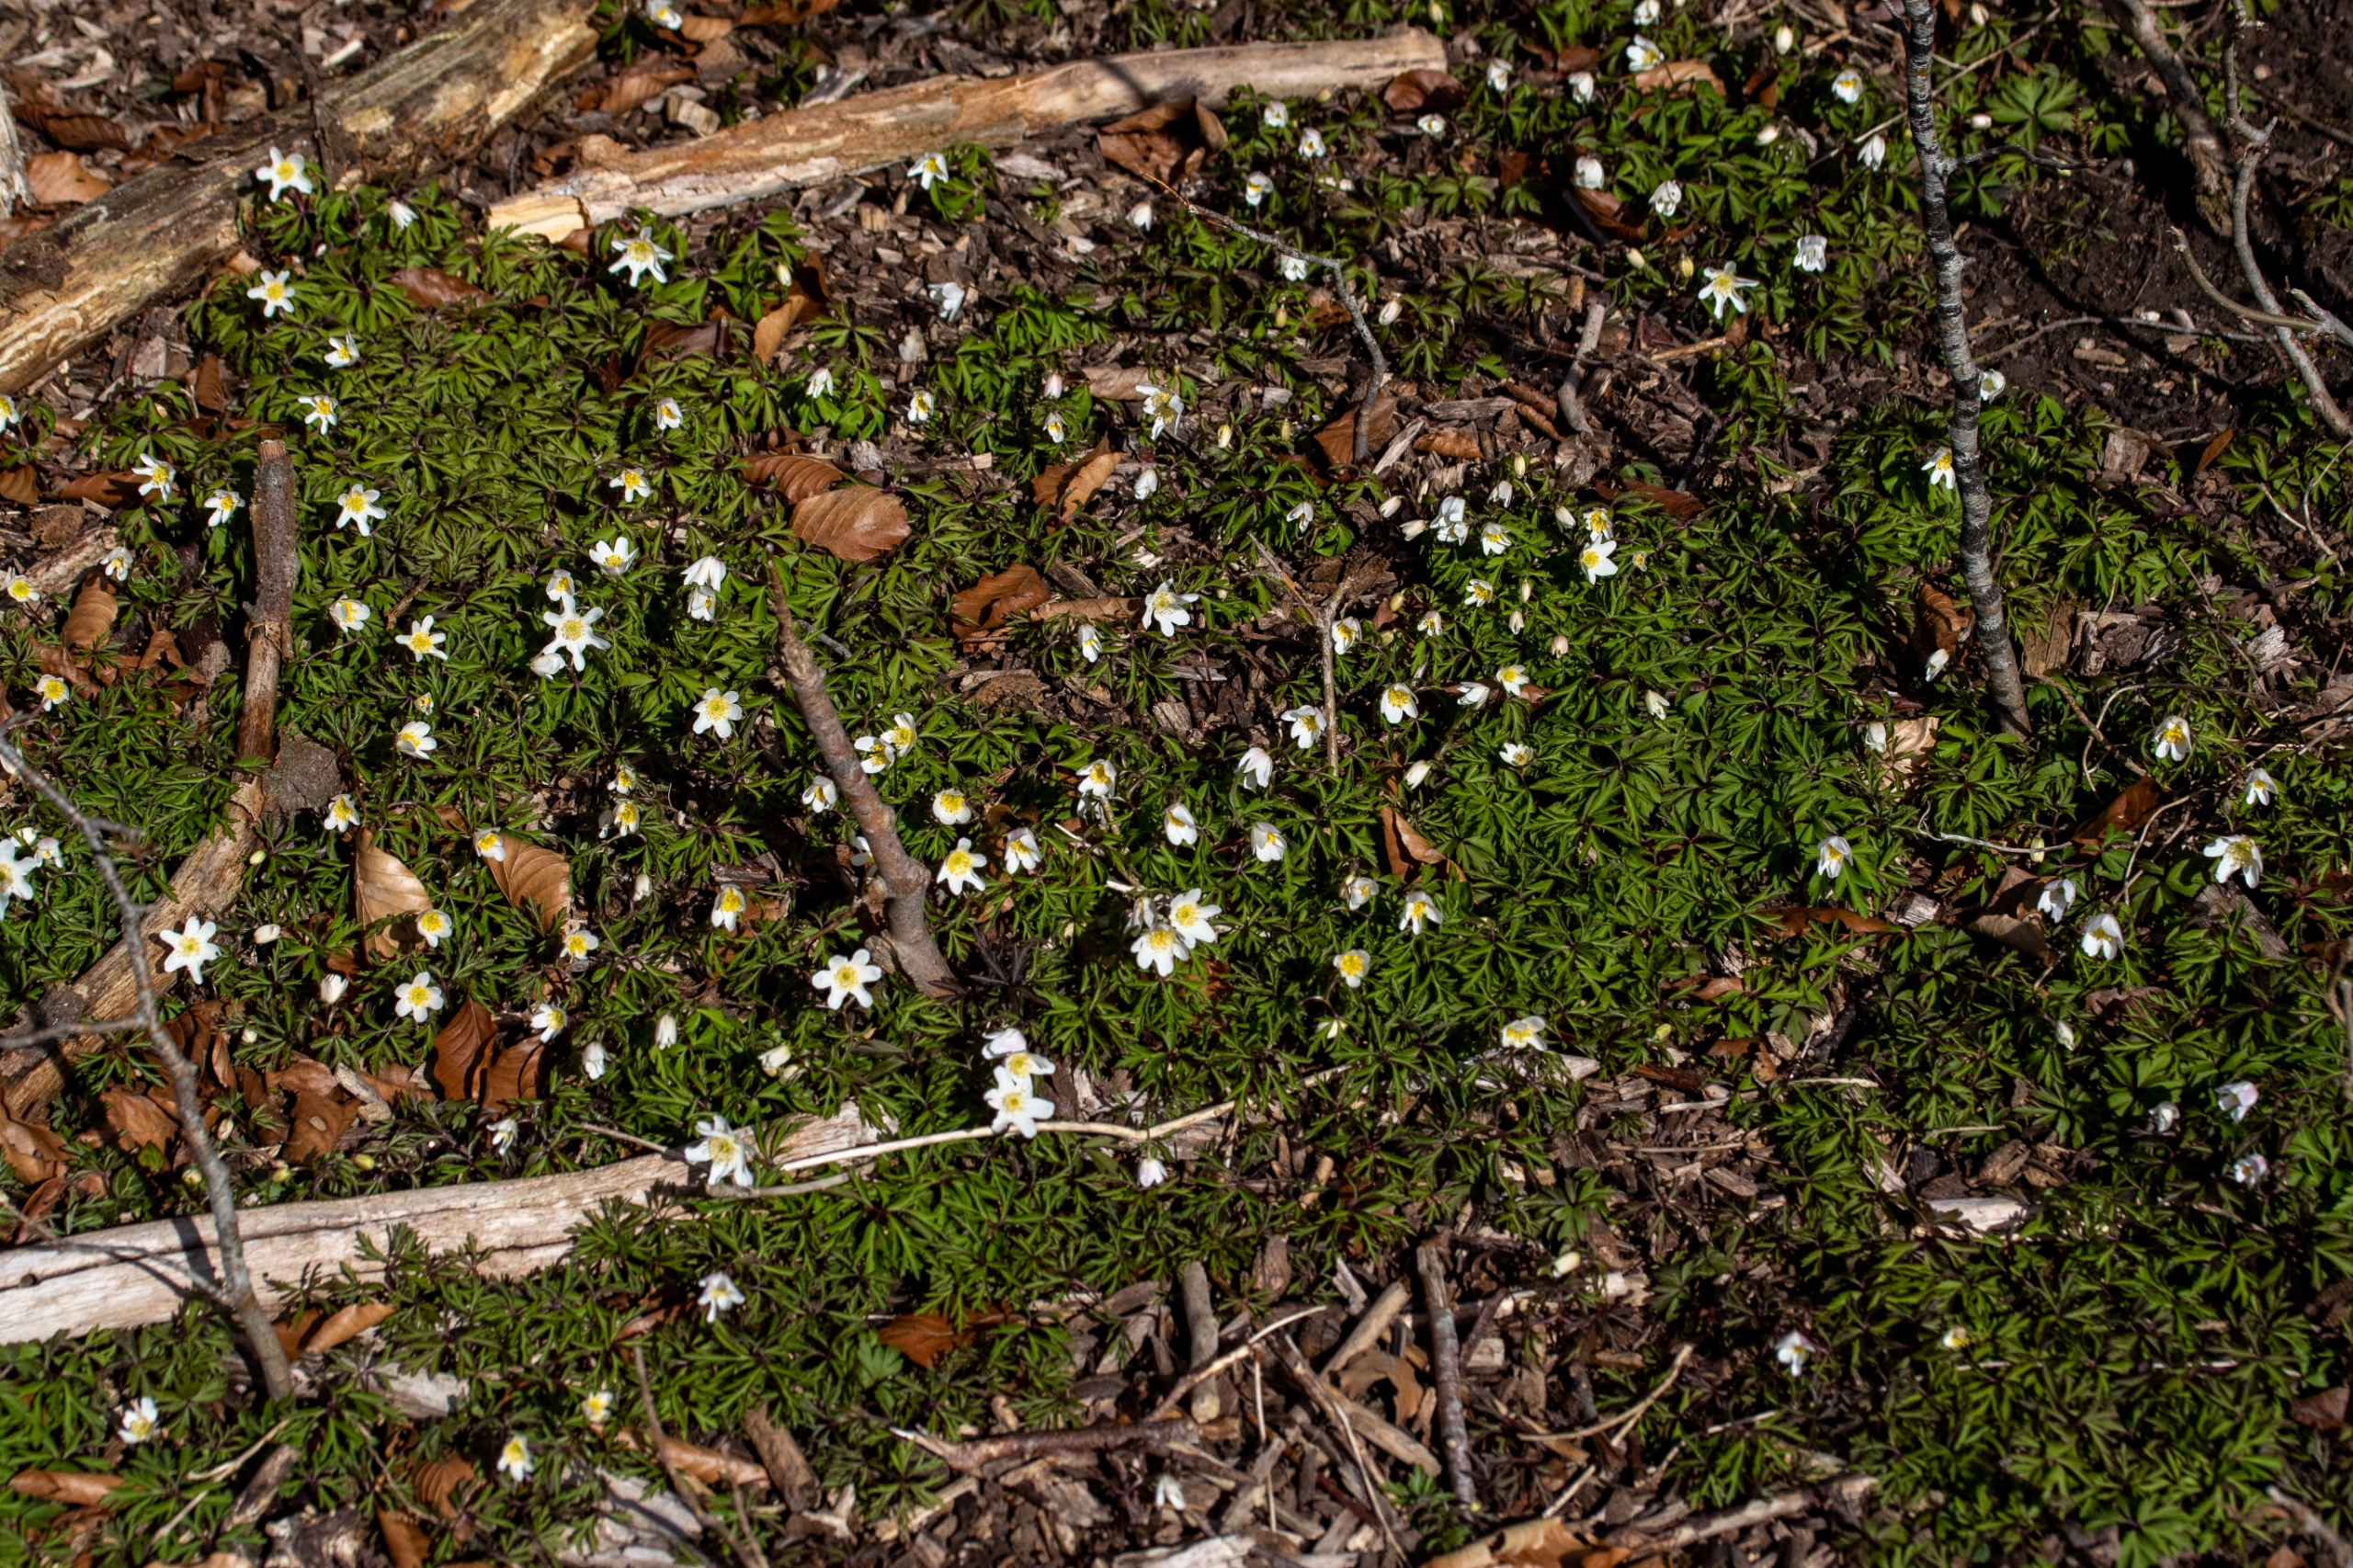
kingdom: Plantae
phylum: Tracheophyta
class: Magnoliopsida
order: Ranunculales
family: Ranunculaceae
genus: Anemone
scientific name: Anemone nemorosa
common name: Hvid anemone
